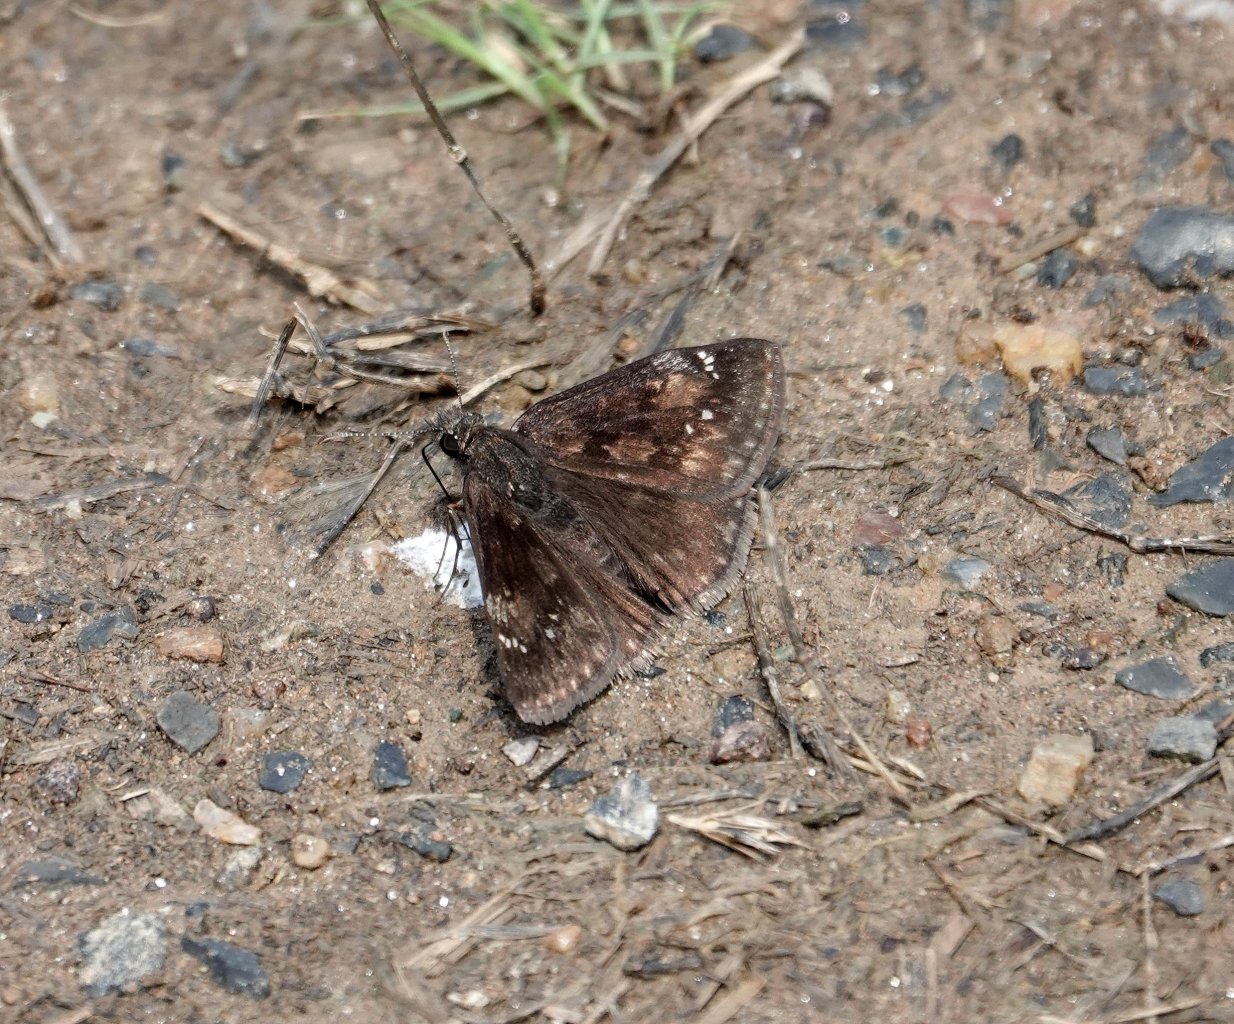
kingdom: Animalia
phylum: Arthropoda
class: Insecta
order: Lepidoptera
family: Hesperiidae
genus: Gesta
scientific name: Gesta
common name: Wild Indigo Duskywing
